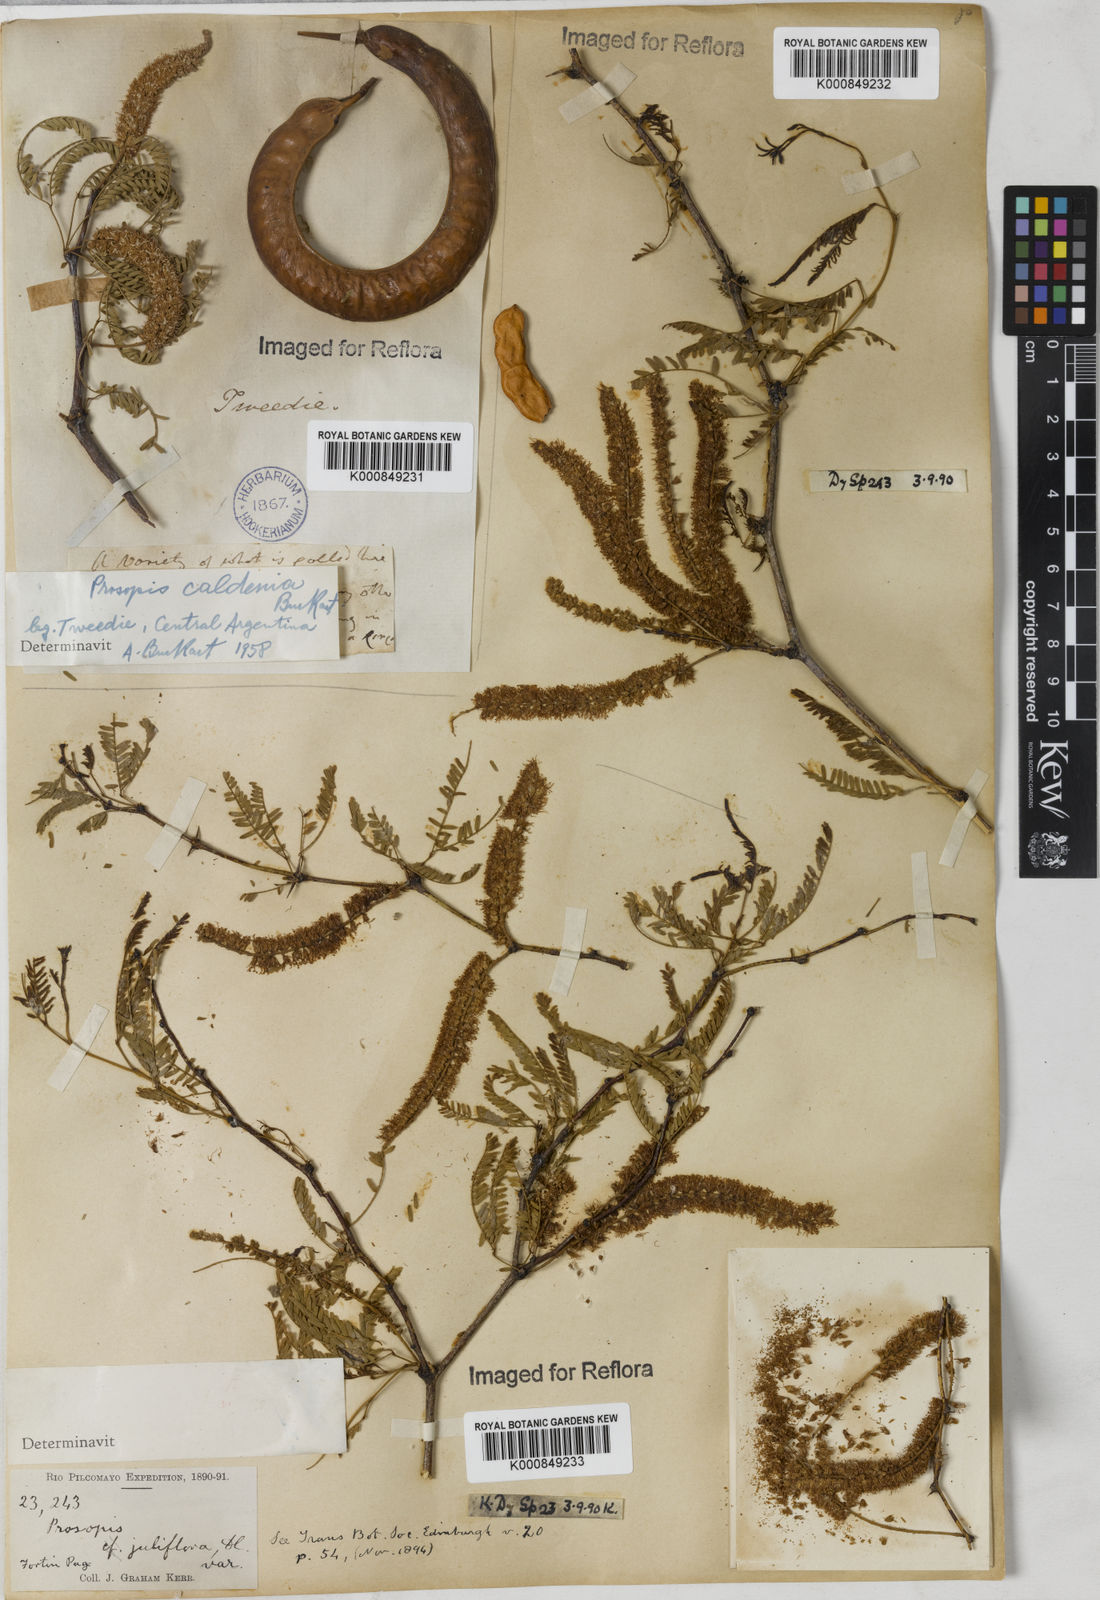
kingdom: Plantae
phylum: Tracheophyta
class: Magnoliopsida
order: Fabales
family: Fabaceae
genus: Prosopis
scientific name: Prosopis juliflora
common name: Mesquite
